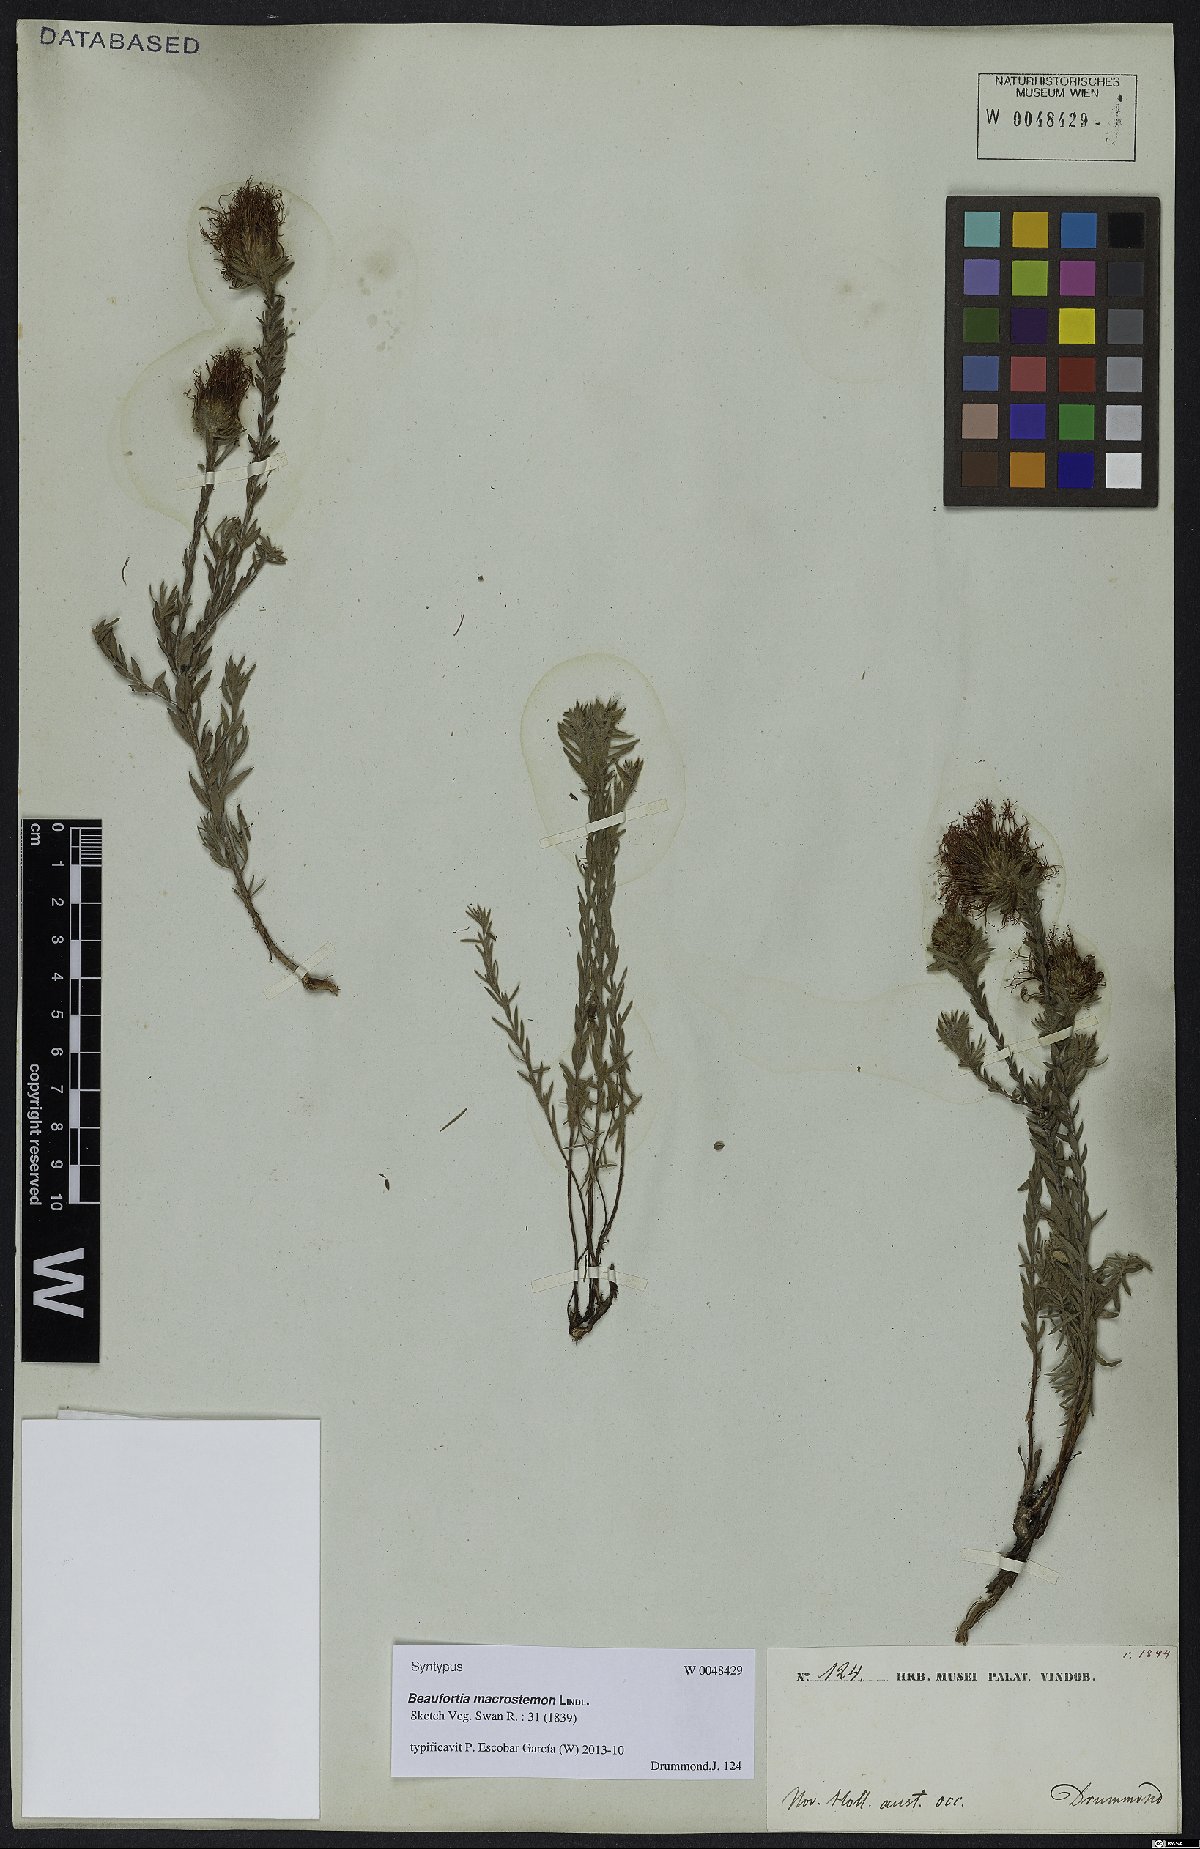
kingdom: Plantae
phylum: Tracheophyta
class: Magnoliopsida
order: Myrtales
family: Myrtaceae
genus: Melaleuca
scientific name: Melaleuca macrostemon
